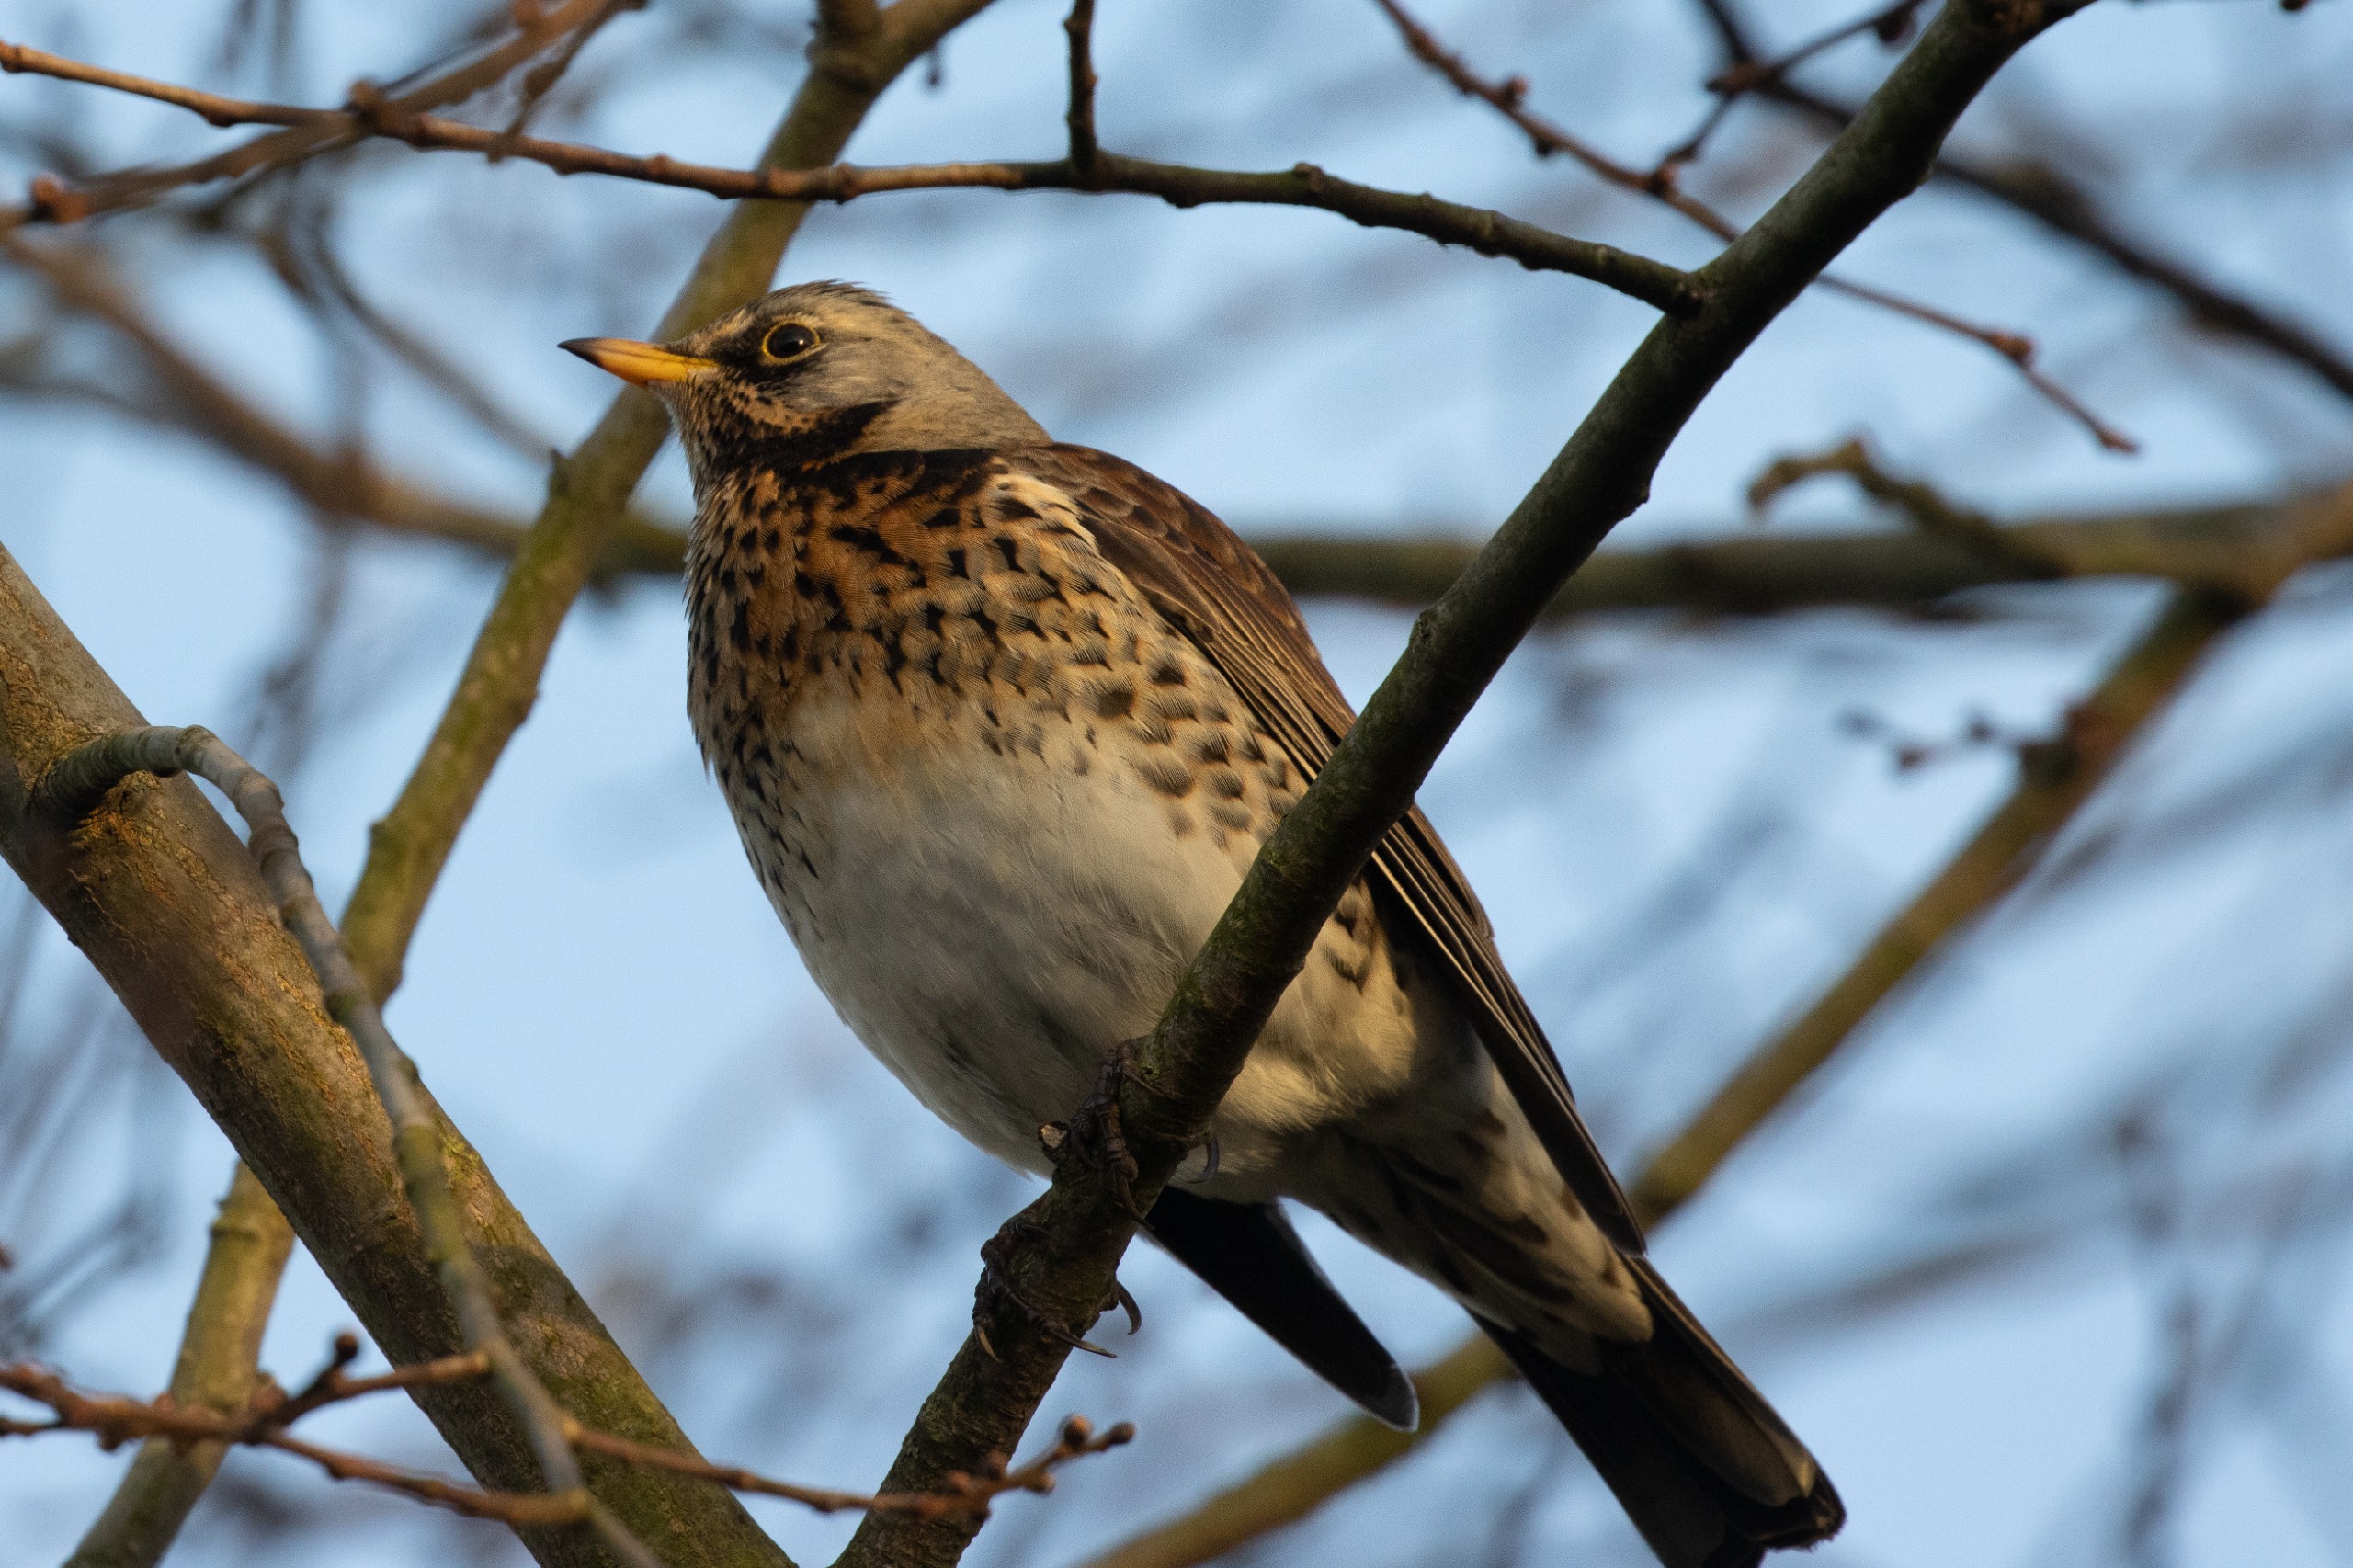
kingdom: Animalia
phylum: Chordata
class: Aves
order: Passeriformes
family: Turdidae
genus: Turdus
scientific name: Turdus pilaris
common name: Sjagger
